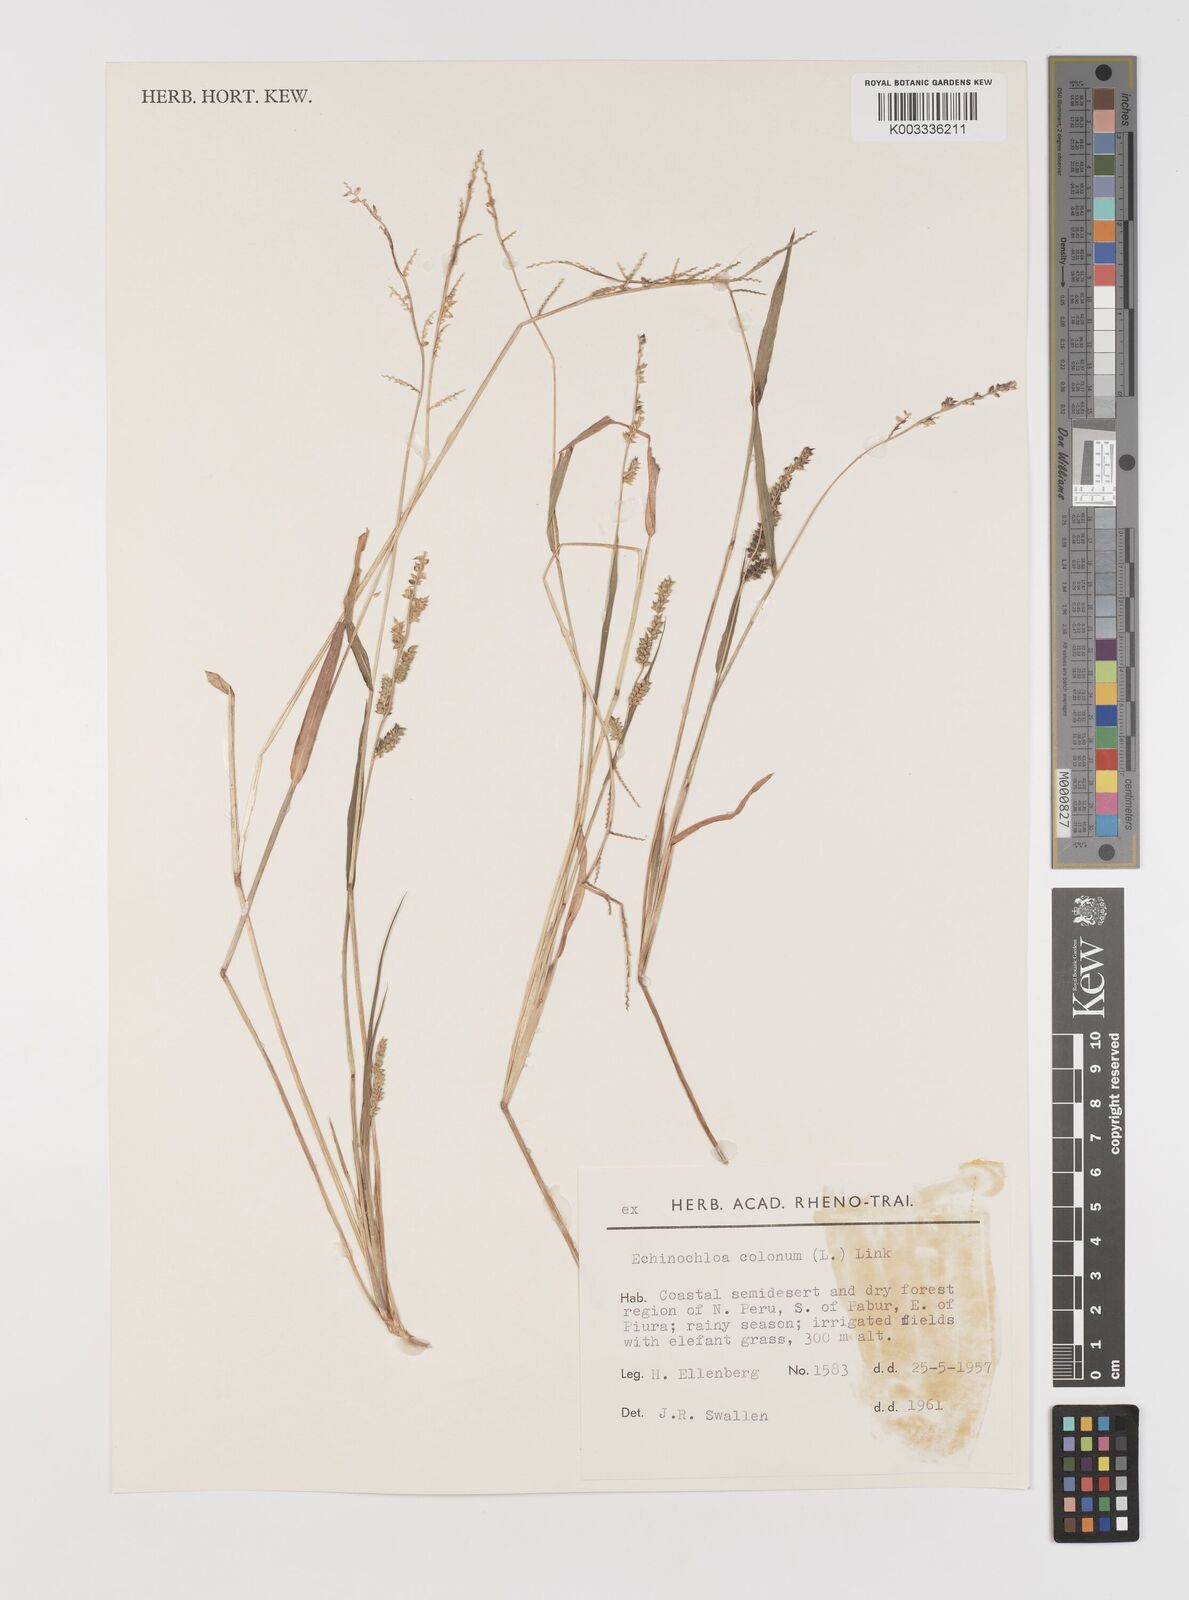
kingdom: Plantae
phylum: Tracheophyta
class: Liliopsida
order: Poales
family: Poaceae
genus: Echinochloa
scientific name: Echinochloa colonum
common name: Jungle rice
